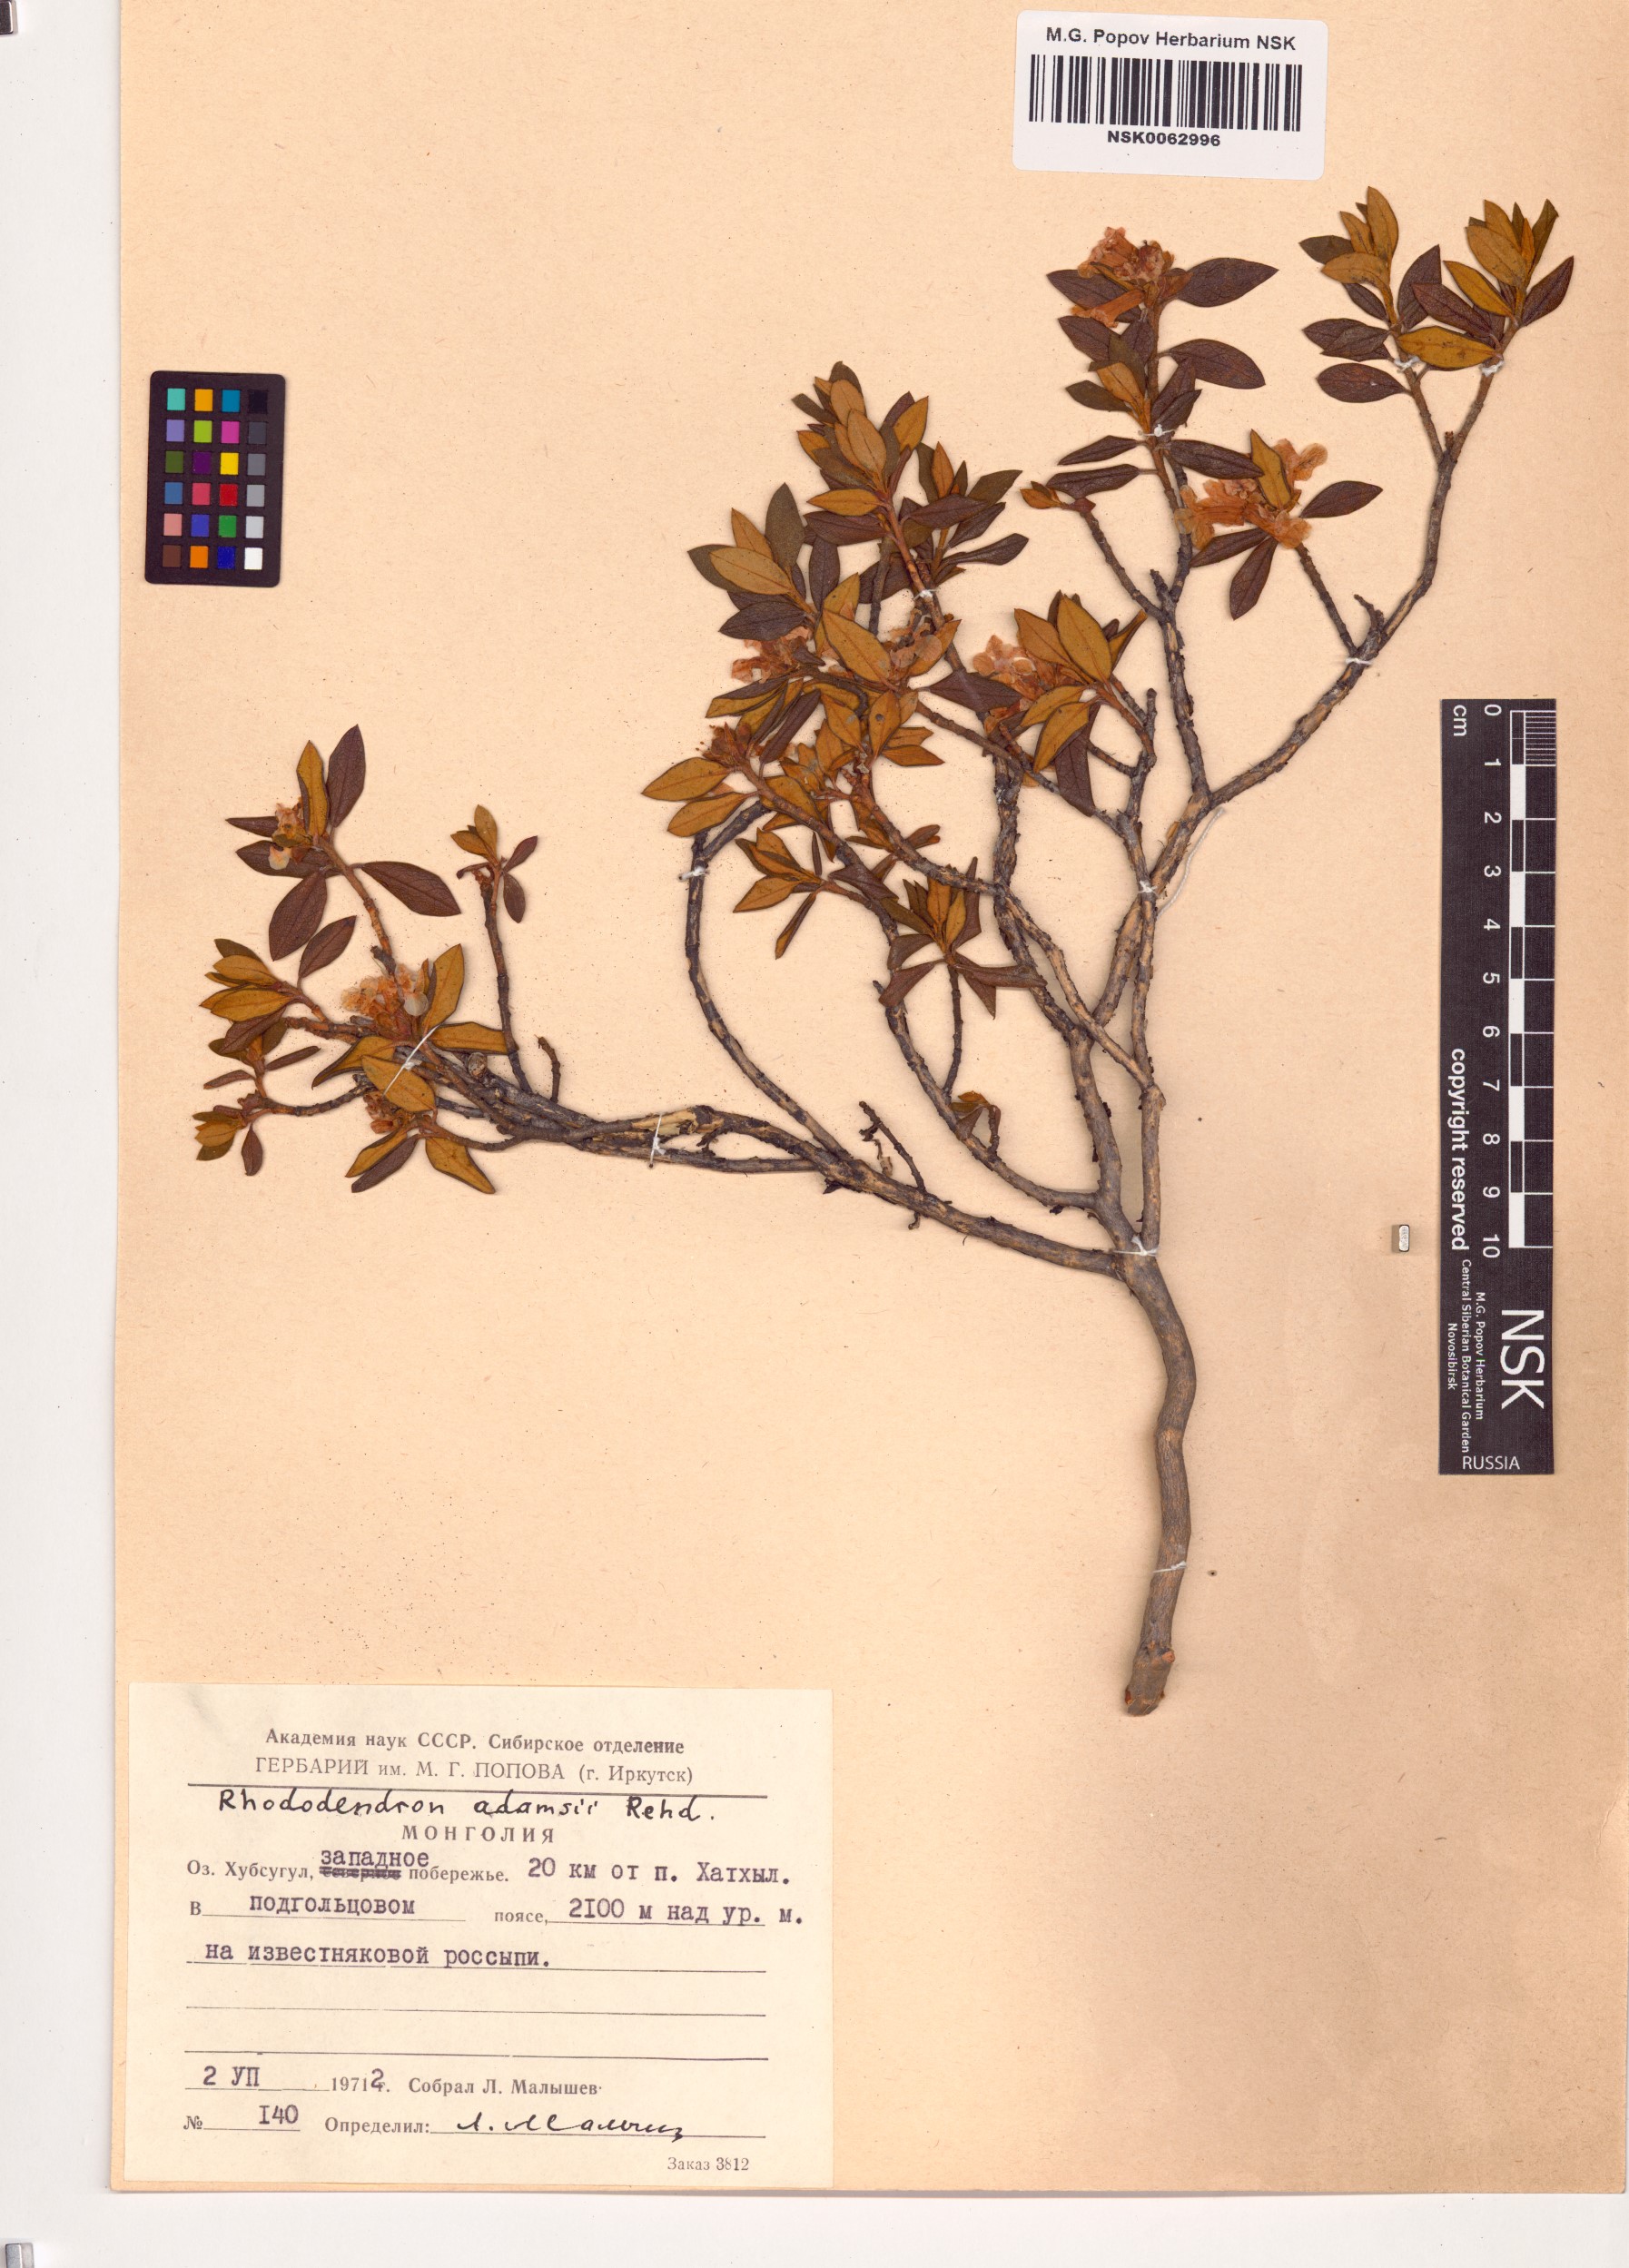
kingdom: Plantae
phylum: Tracheophyta
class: Magnoliopsida
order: Ericales
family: Ericaceae
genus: Rhododendron
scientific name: Rhododendron adamsii
